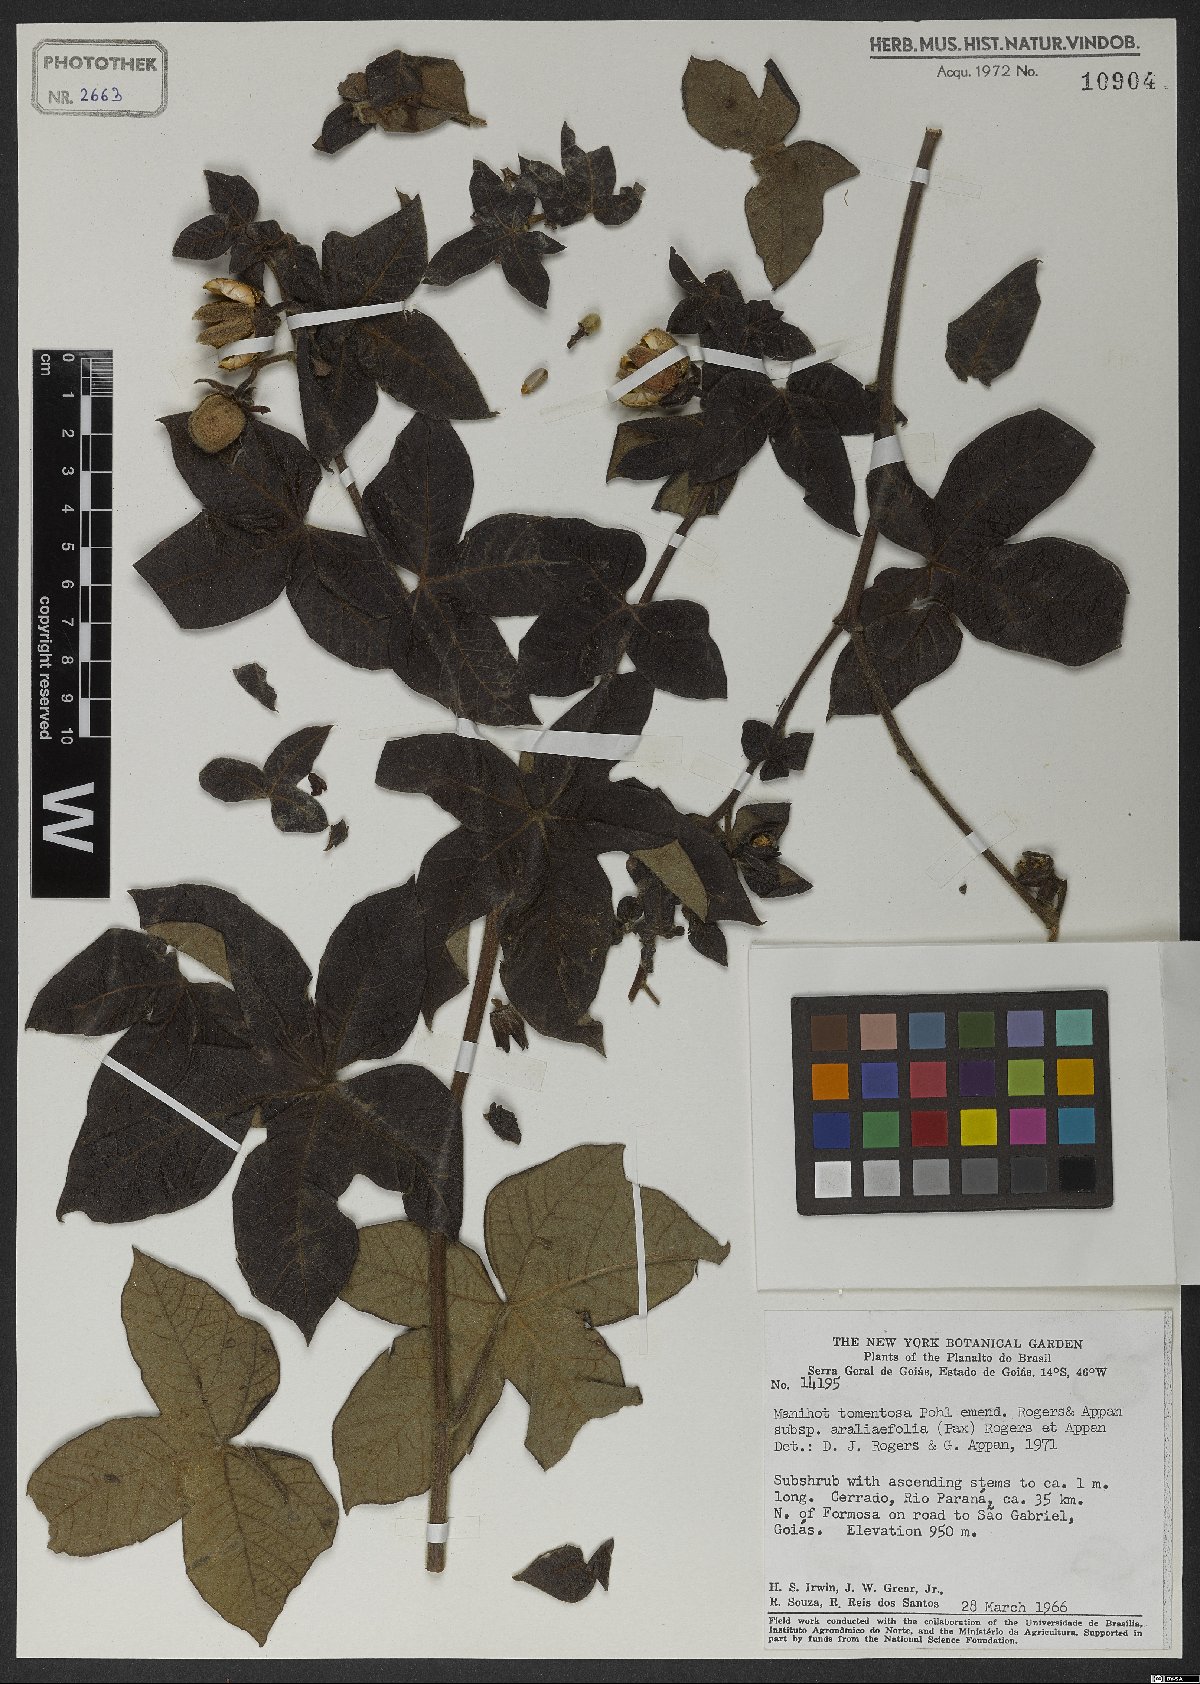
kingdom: Plantae
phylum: Tracheophyta
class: Magnoliopsida
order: Malpighiales
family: Euphorbiaceae
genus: Manihot
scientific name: Manihot tomentosa
